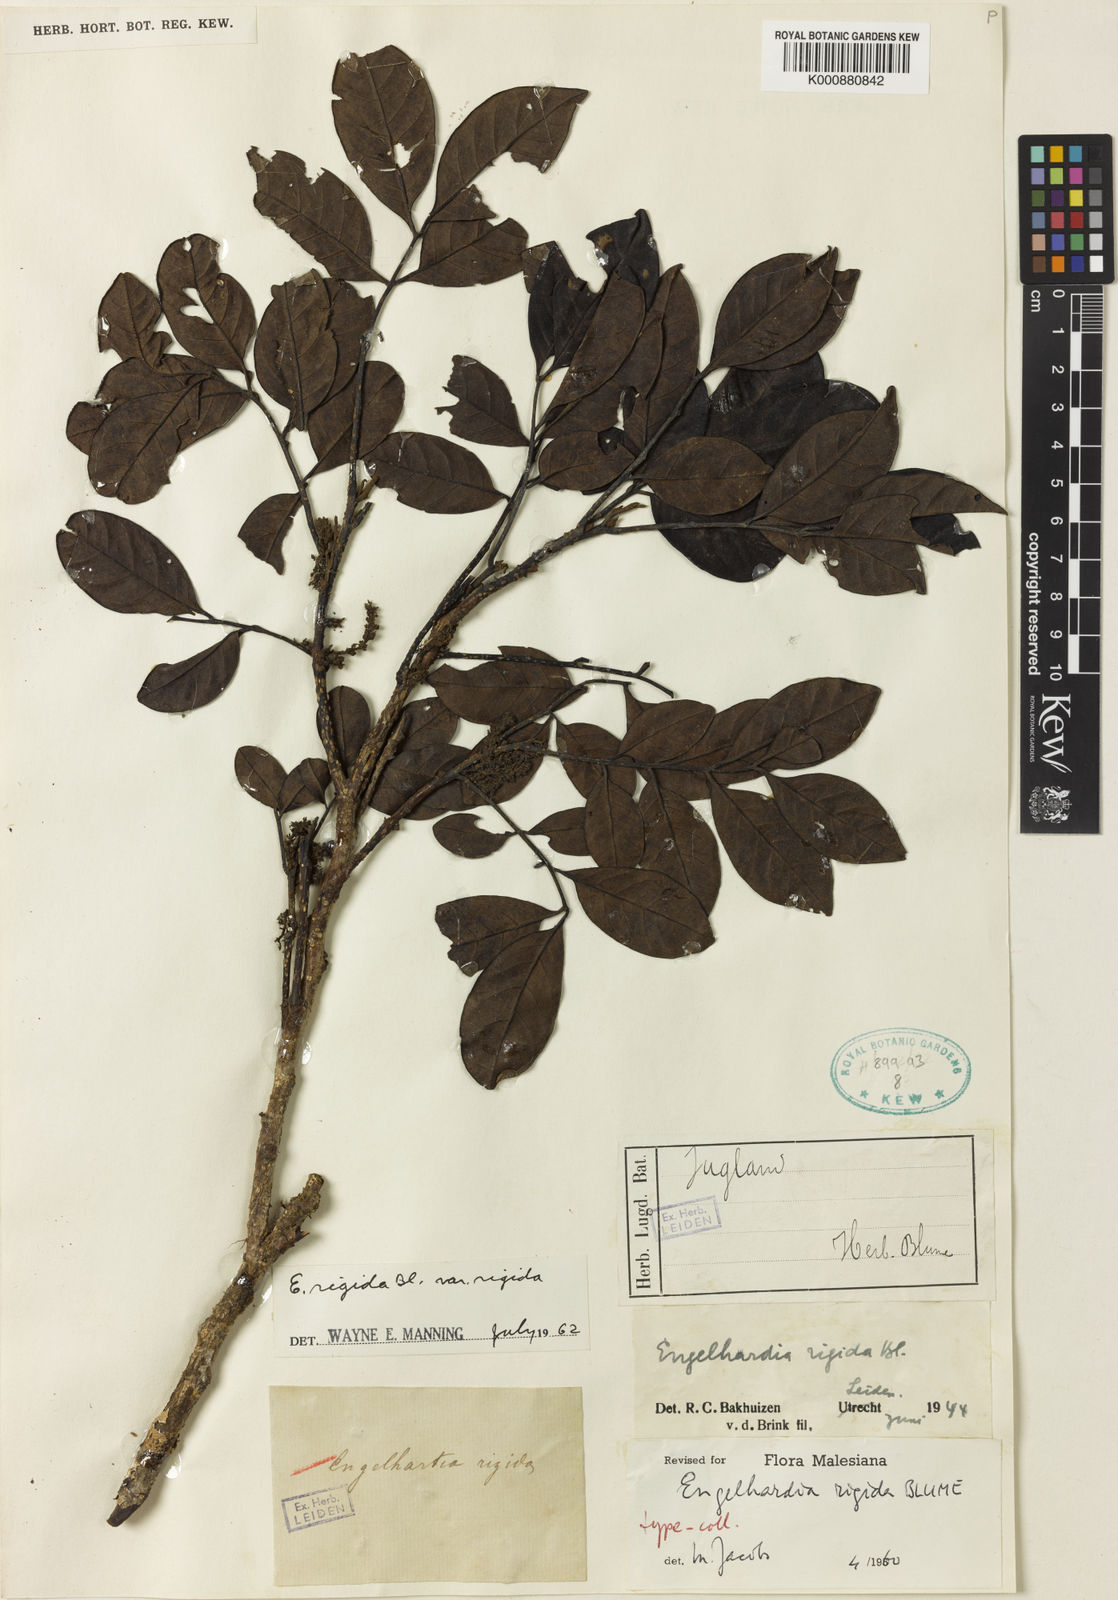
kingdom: Plantae
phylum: Tracheophyta
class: Magnoliopsida
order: Fagales
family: Juglandaceae
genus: Engelhardia
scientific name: Engelhardia rigida
